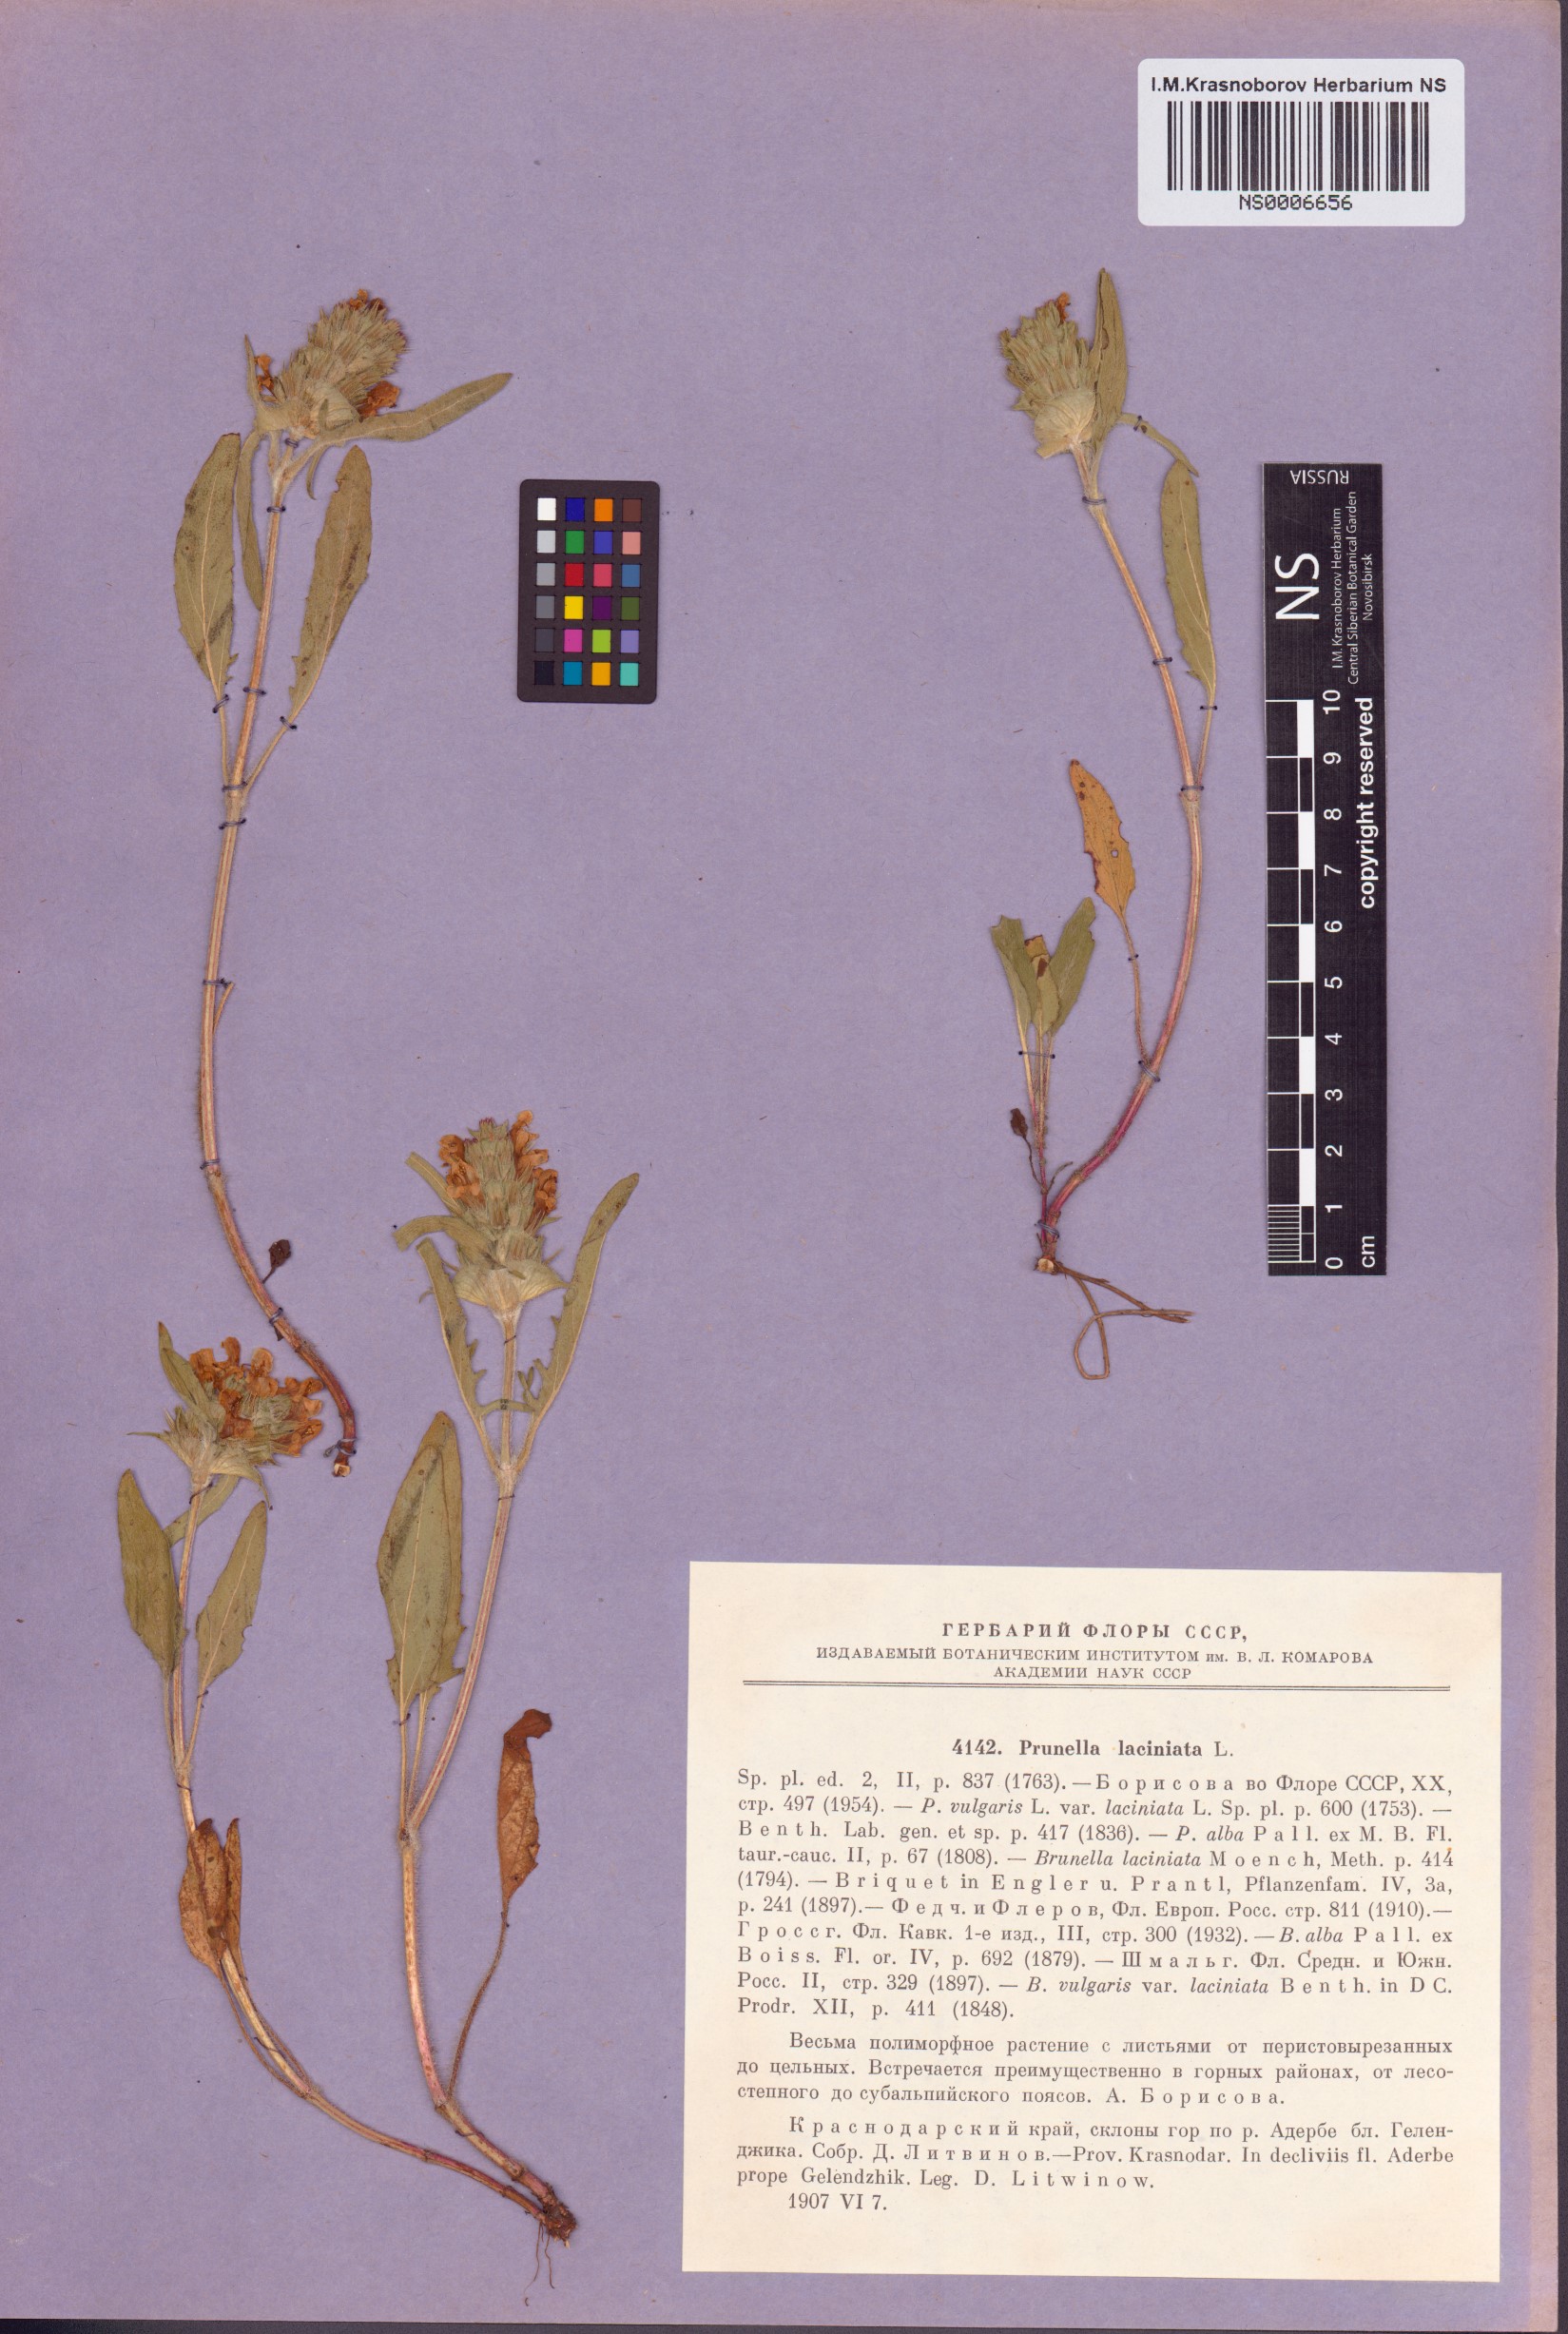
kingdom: Plantae
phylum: Tracheophyta
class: Magnoliopsida
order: Lamiales
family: Lamiaceae
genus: Prunella
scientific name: Prunella laciniata
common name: Cut-leaved selfheal
